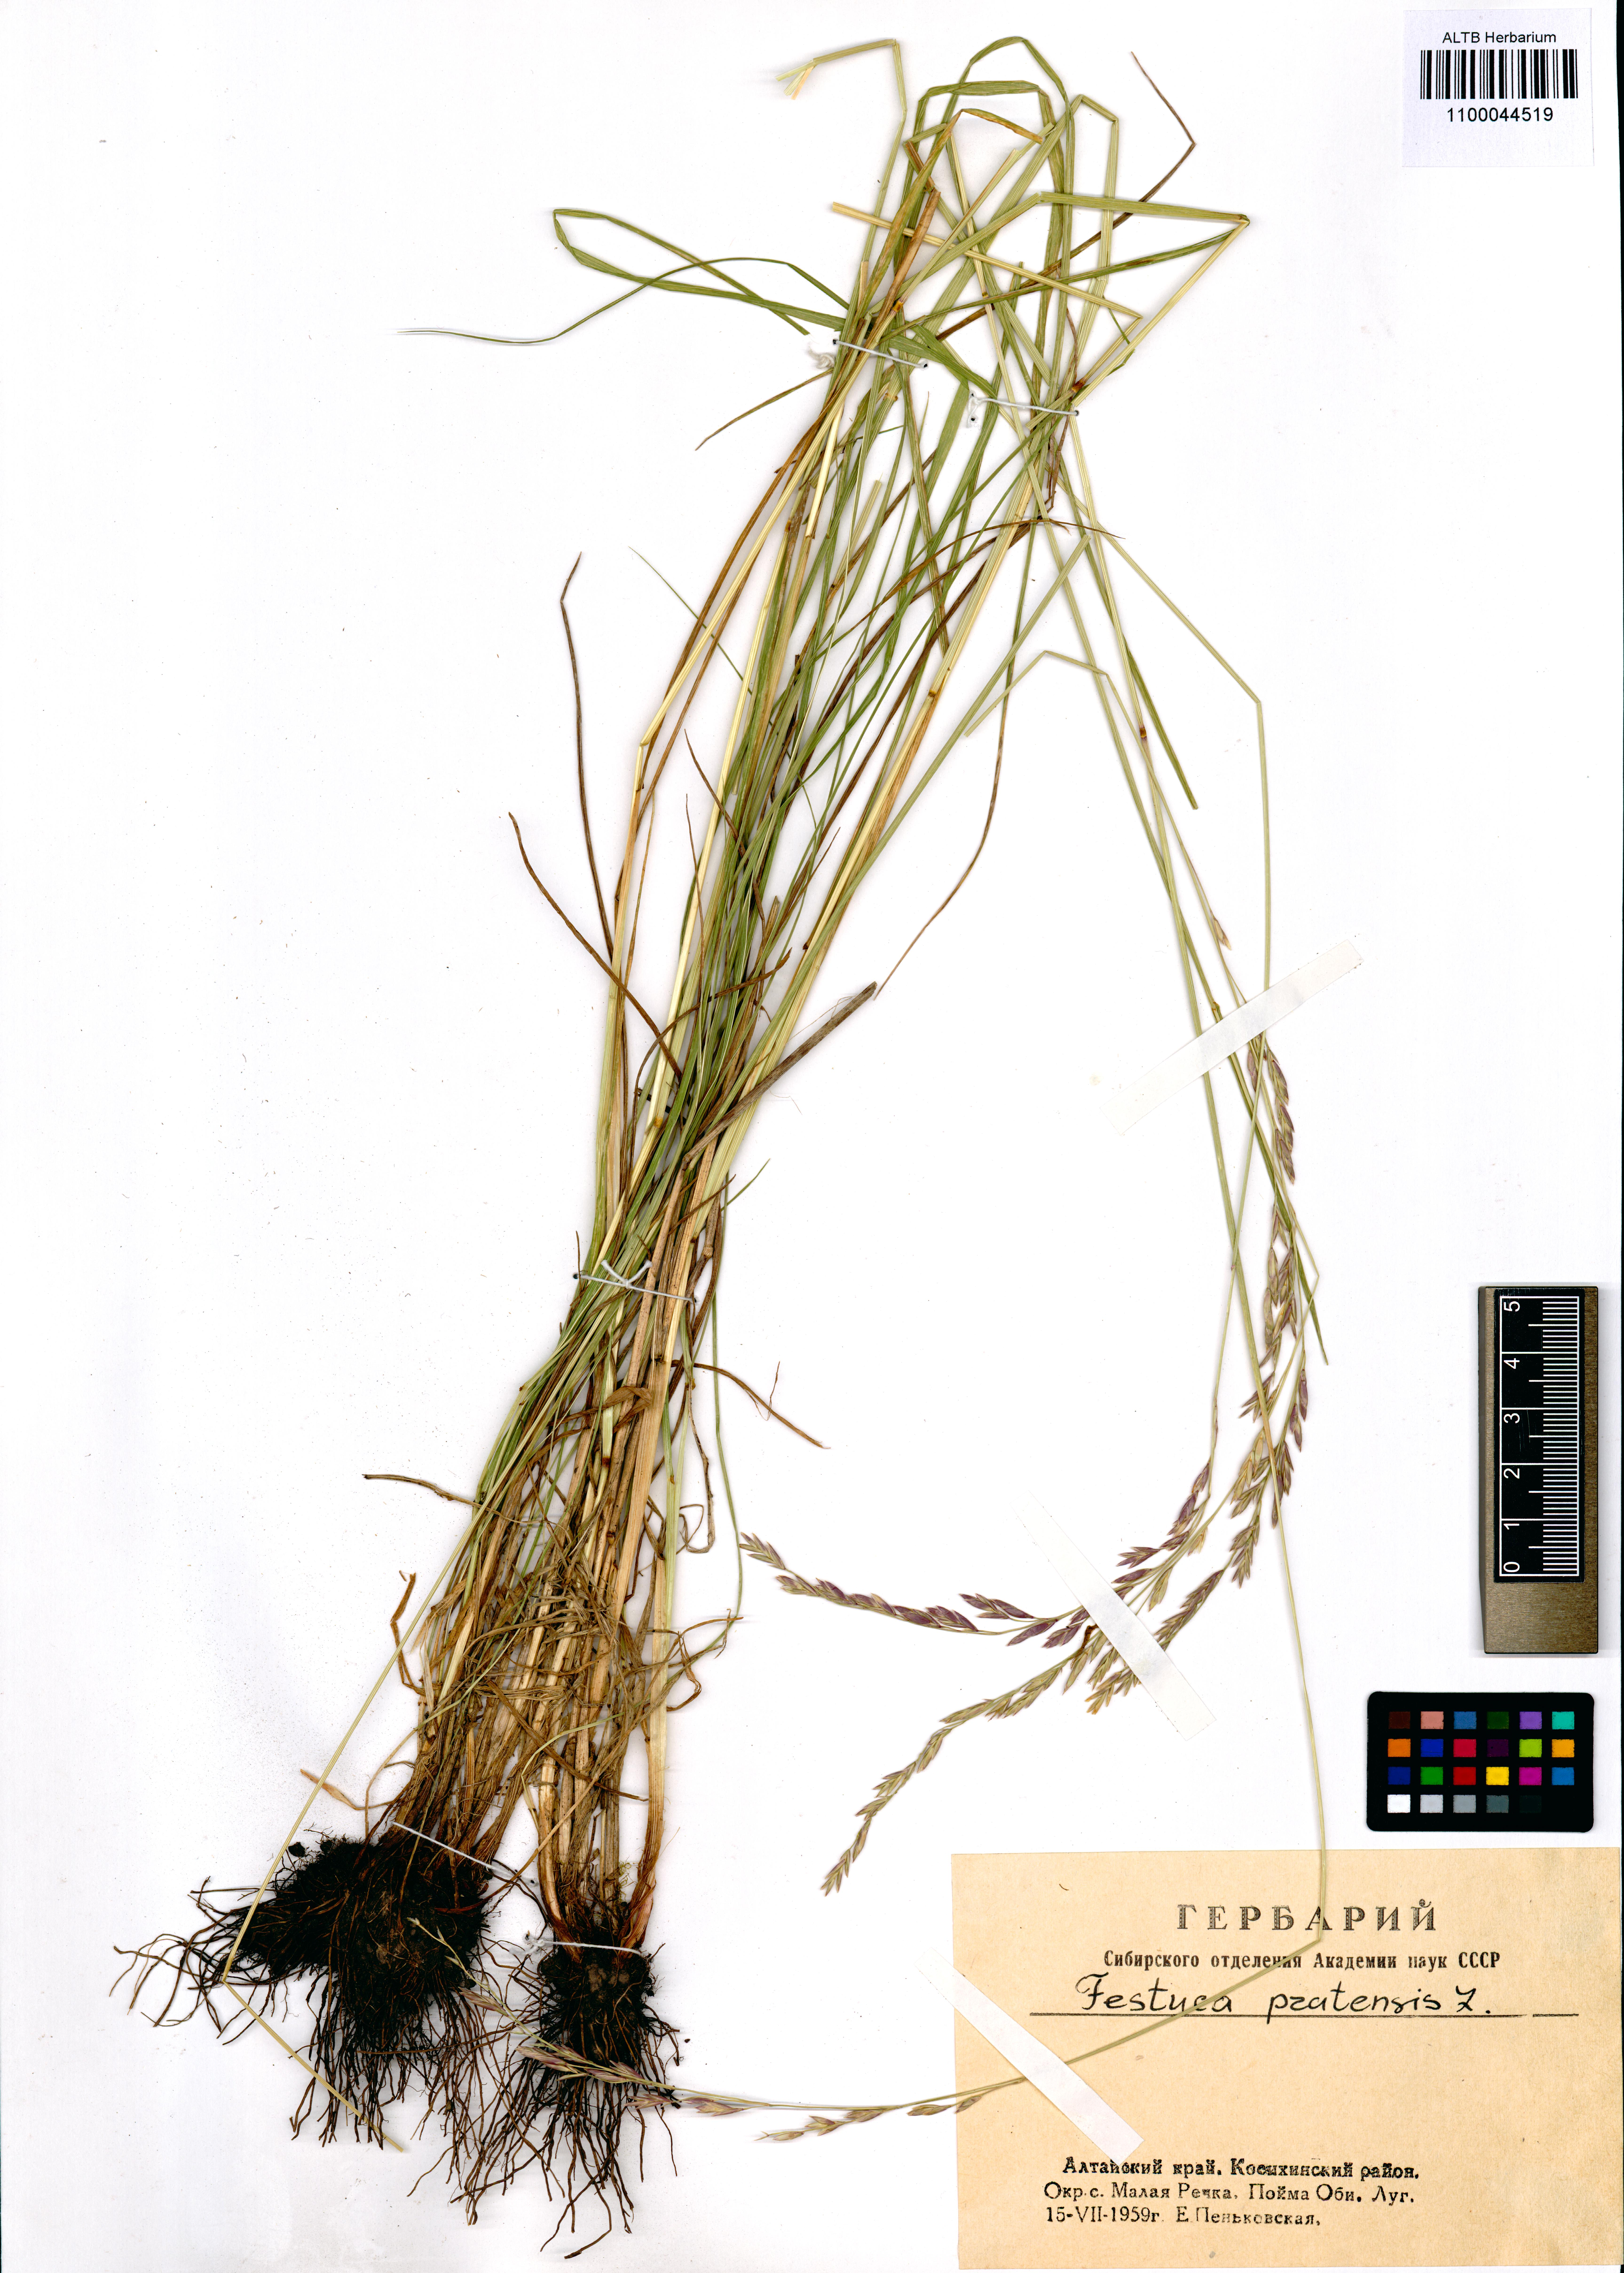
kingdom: Plantae
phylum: Tracheophyta
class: Liliopsida
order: Poales
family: Poaceae
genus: Lolium
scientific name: Lolium pratense
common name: Dover grass
